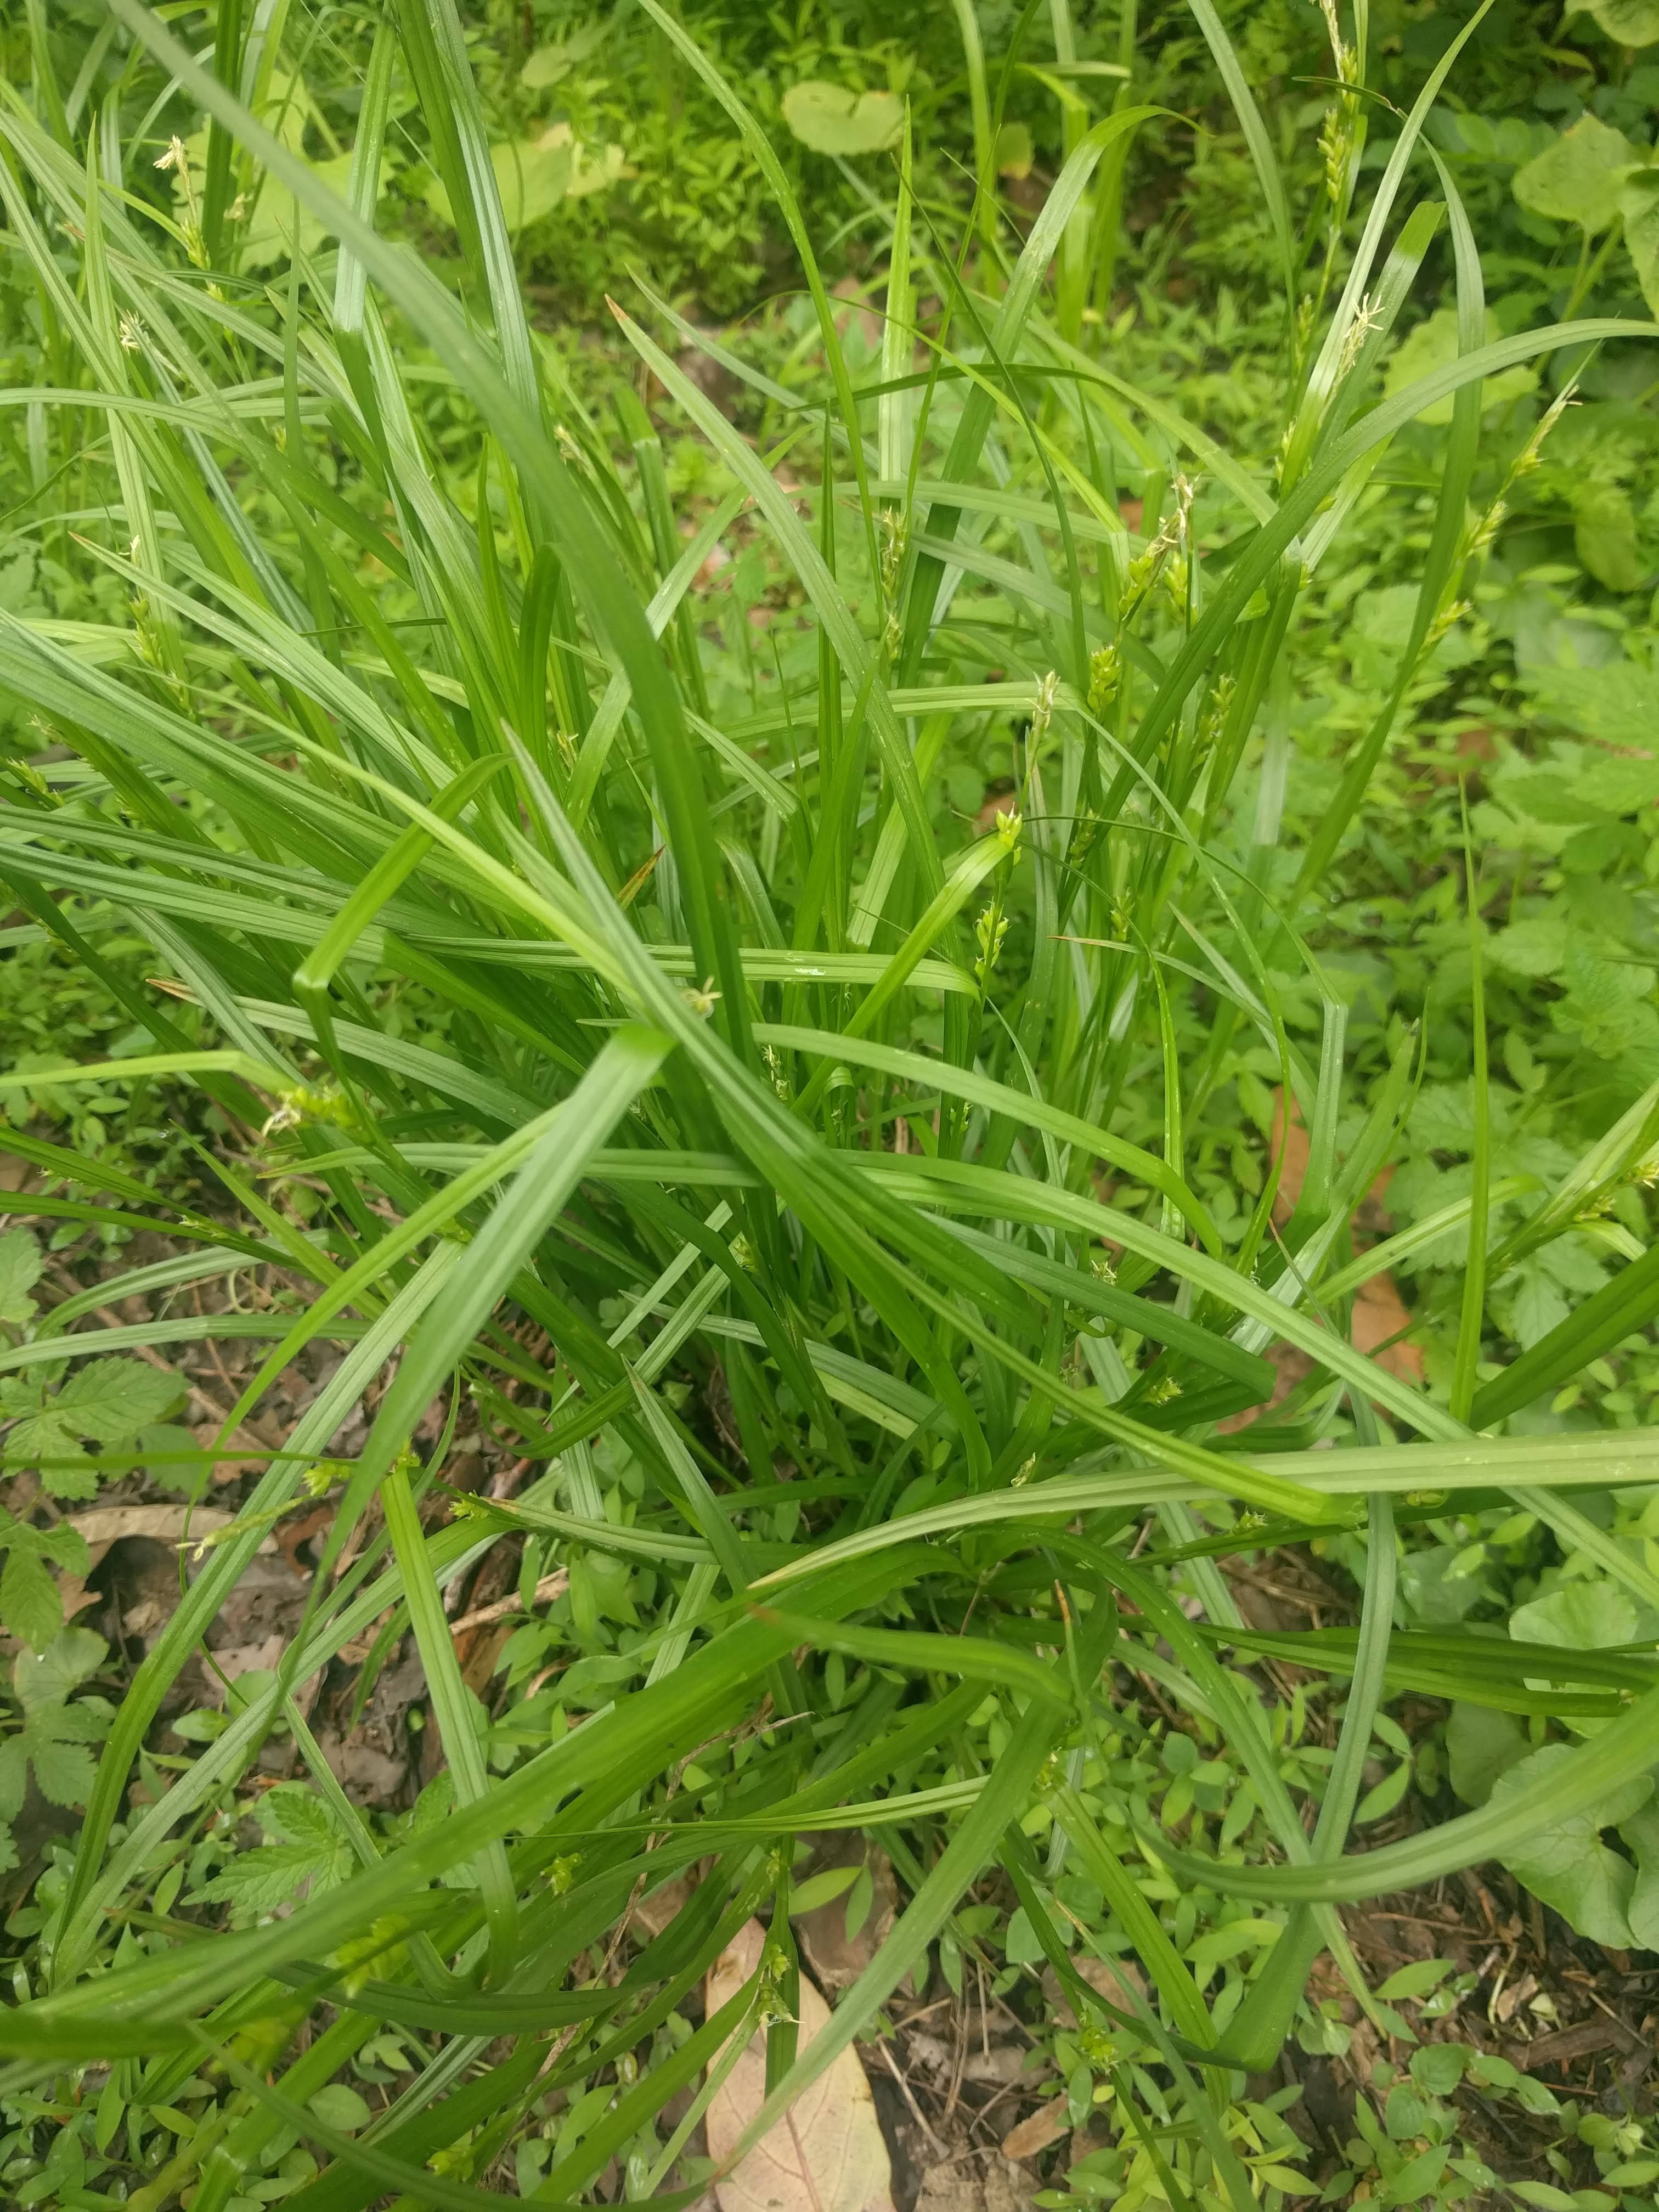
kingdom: Plantae
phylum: Tracheophyta
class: Liliopsida
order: Poales
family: Cyperaceae
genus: Carex
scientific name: Carex amphibola
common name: Amphibious sedge
